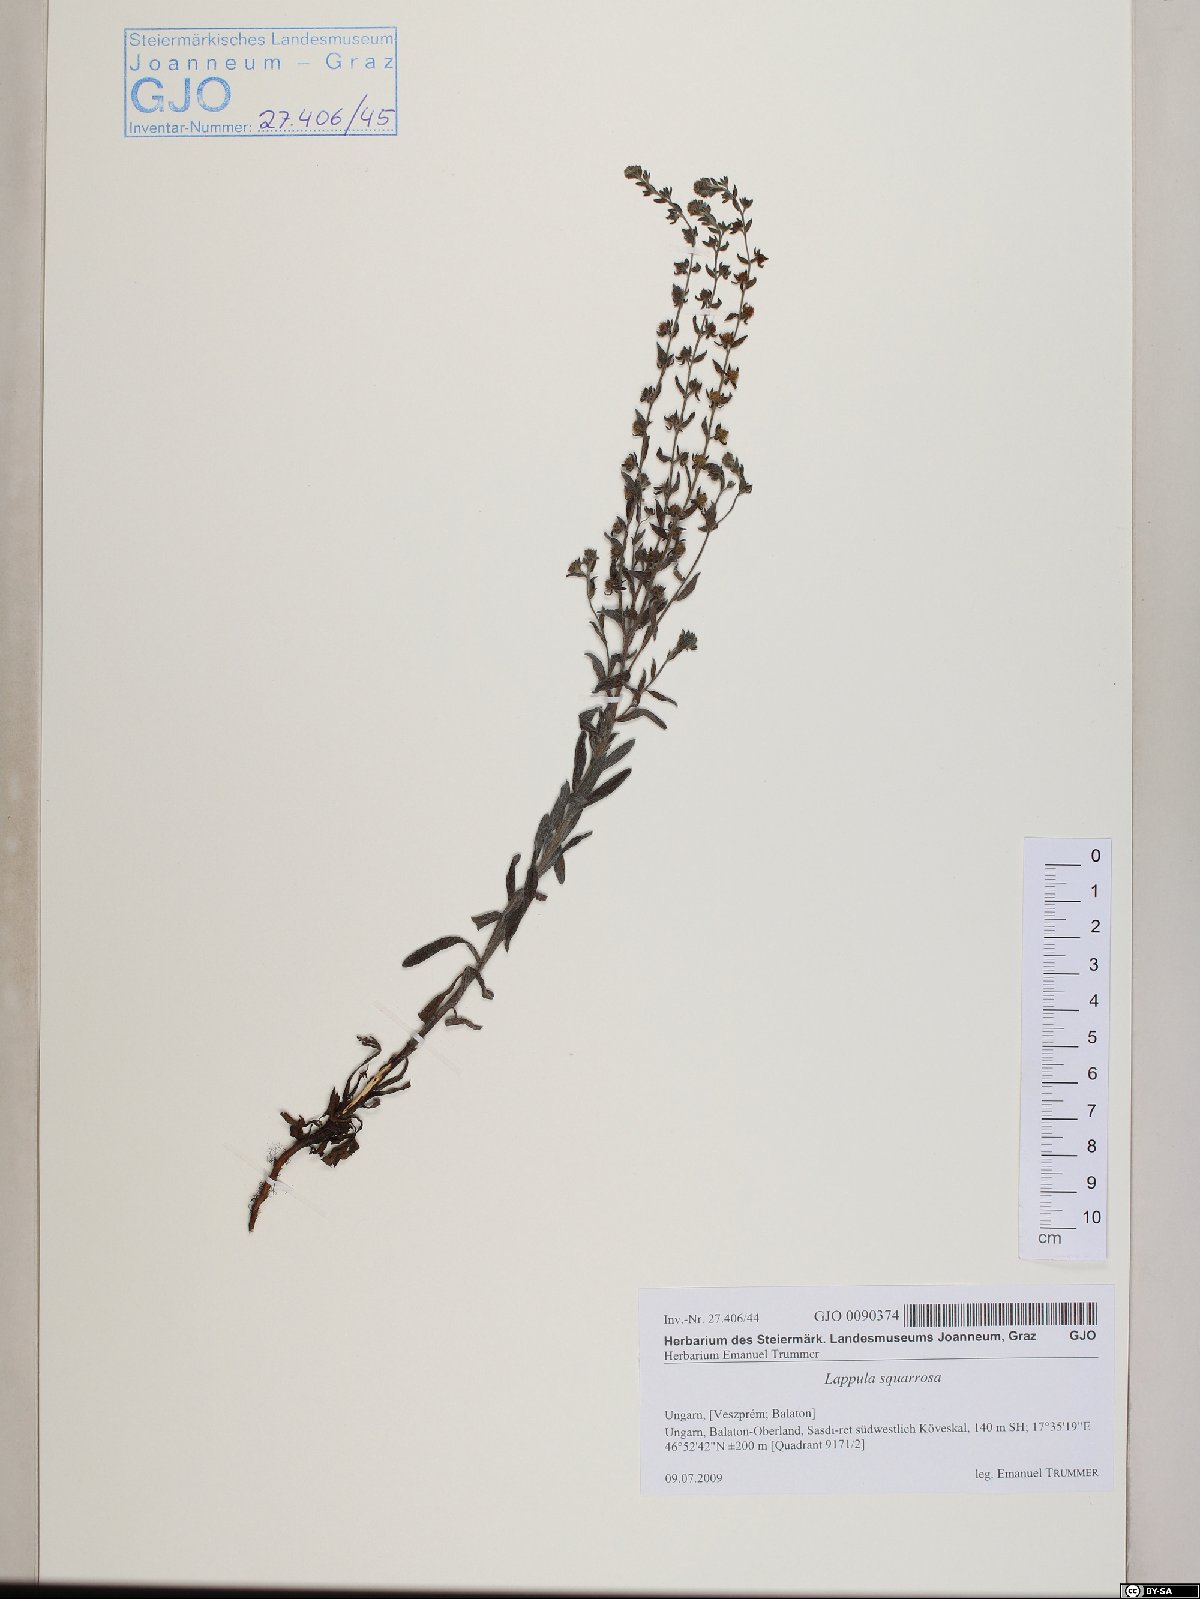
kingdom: Plantae
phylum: Tracheophyta
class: Magnoliopsida
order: Boraginales
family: Boraginaceae
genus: Lappula
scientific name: Lappula squarrosa
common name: European stickseed
